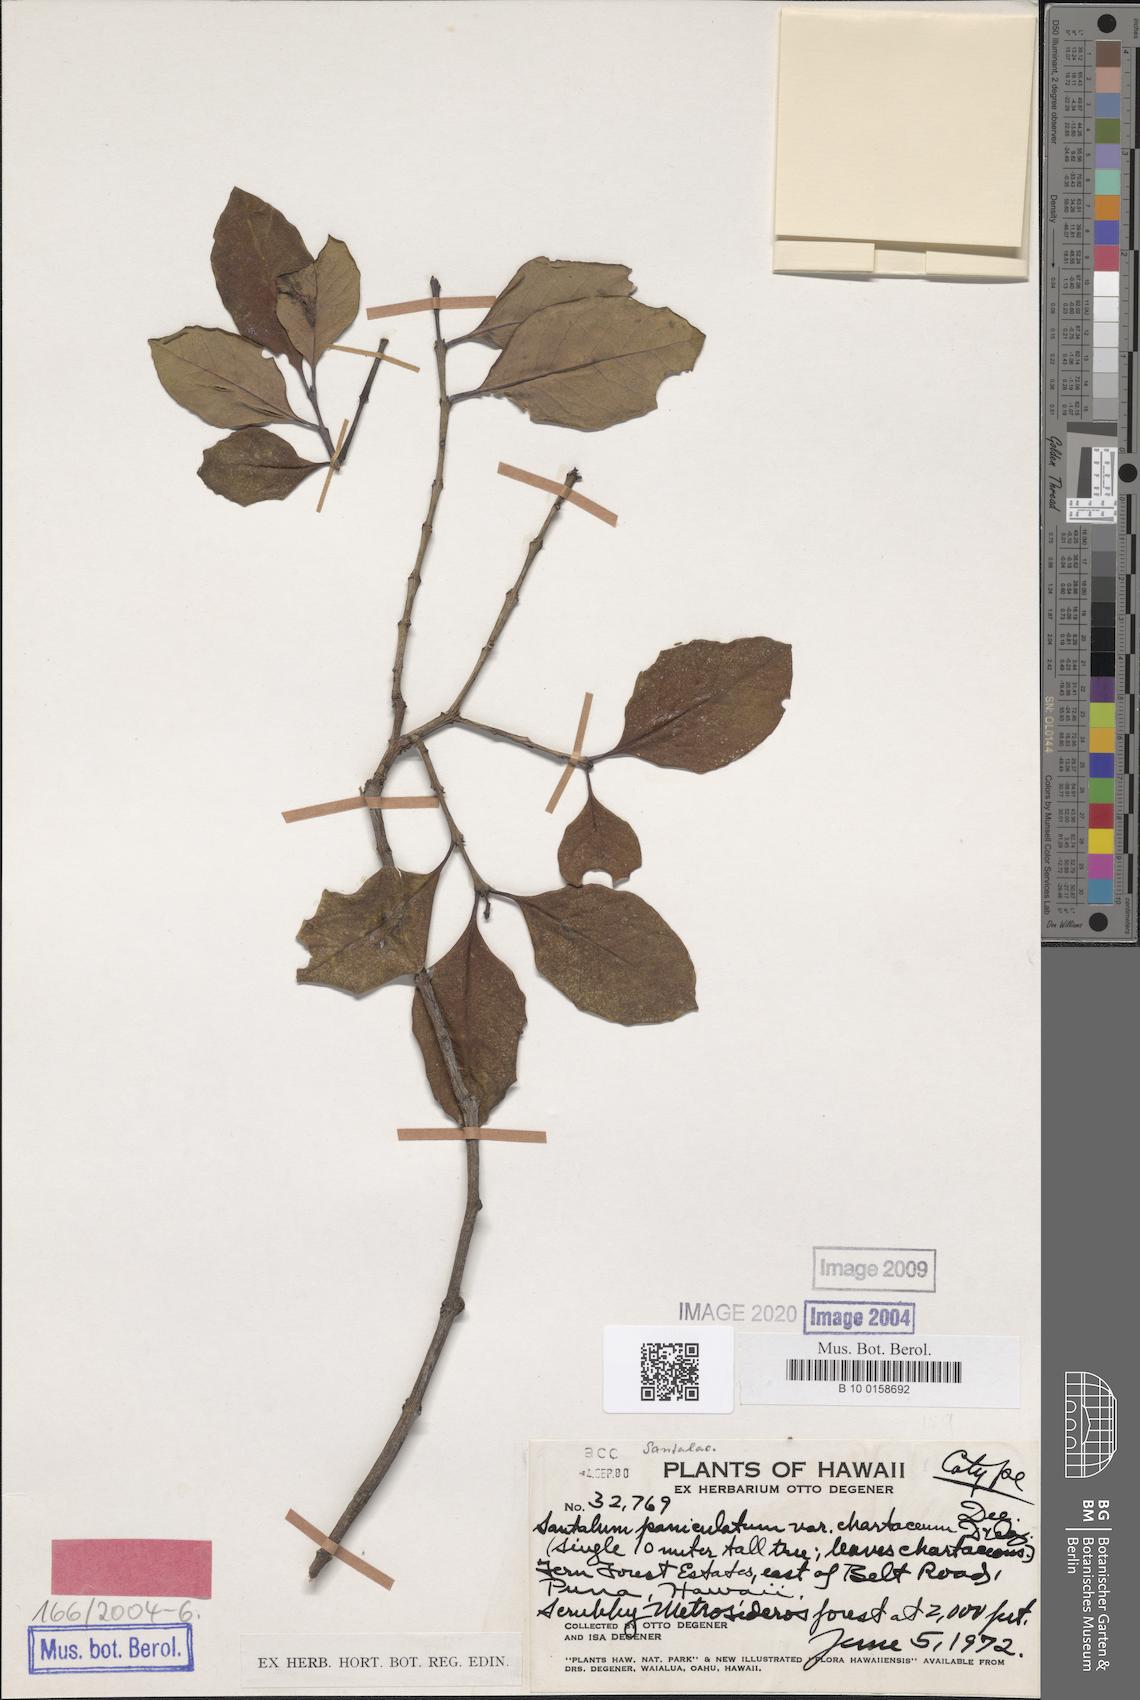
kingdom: Plantae
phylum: Tracheophyta
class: Magnoliopsida
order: Santalales
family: Santalaceae
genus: Santalum
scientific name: Santalum paniculatum
